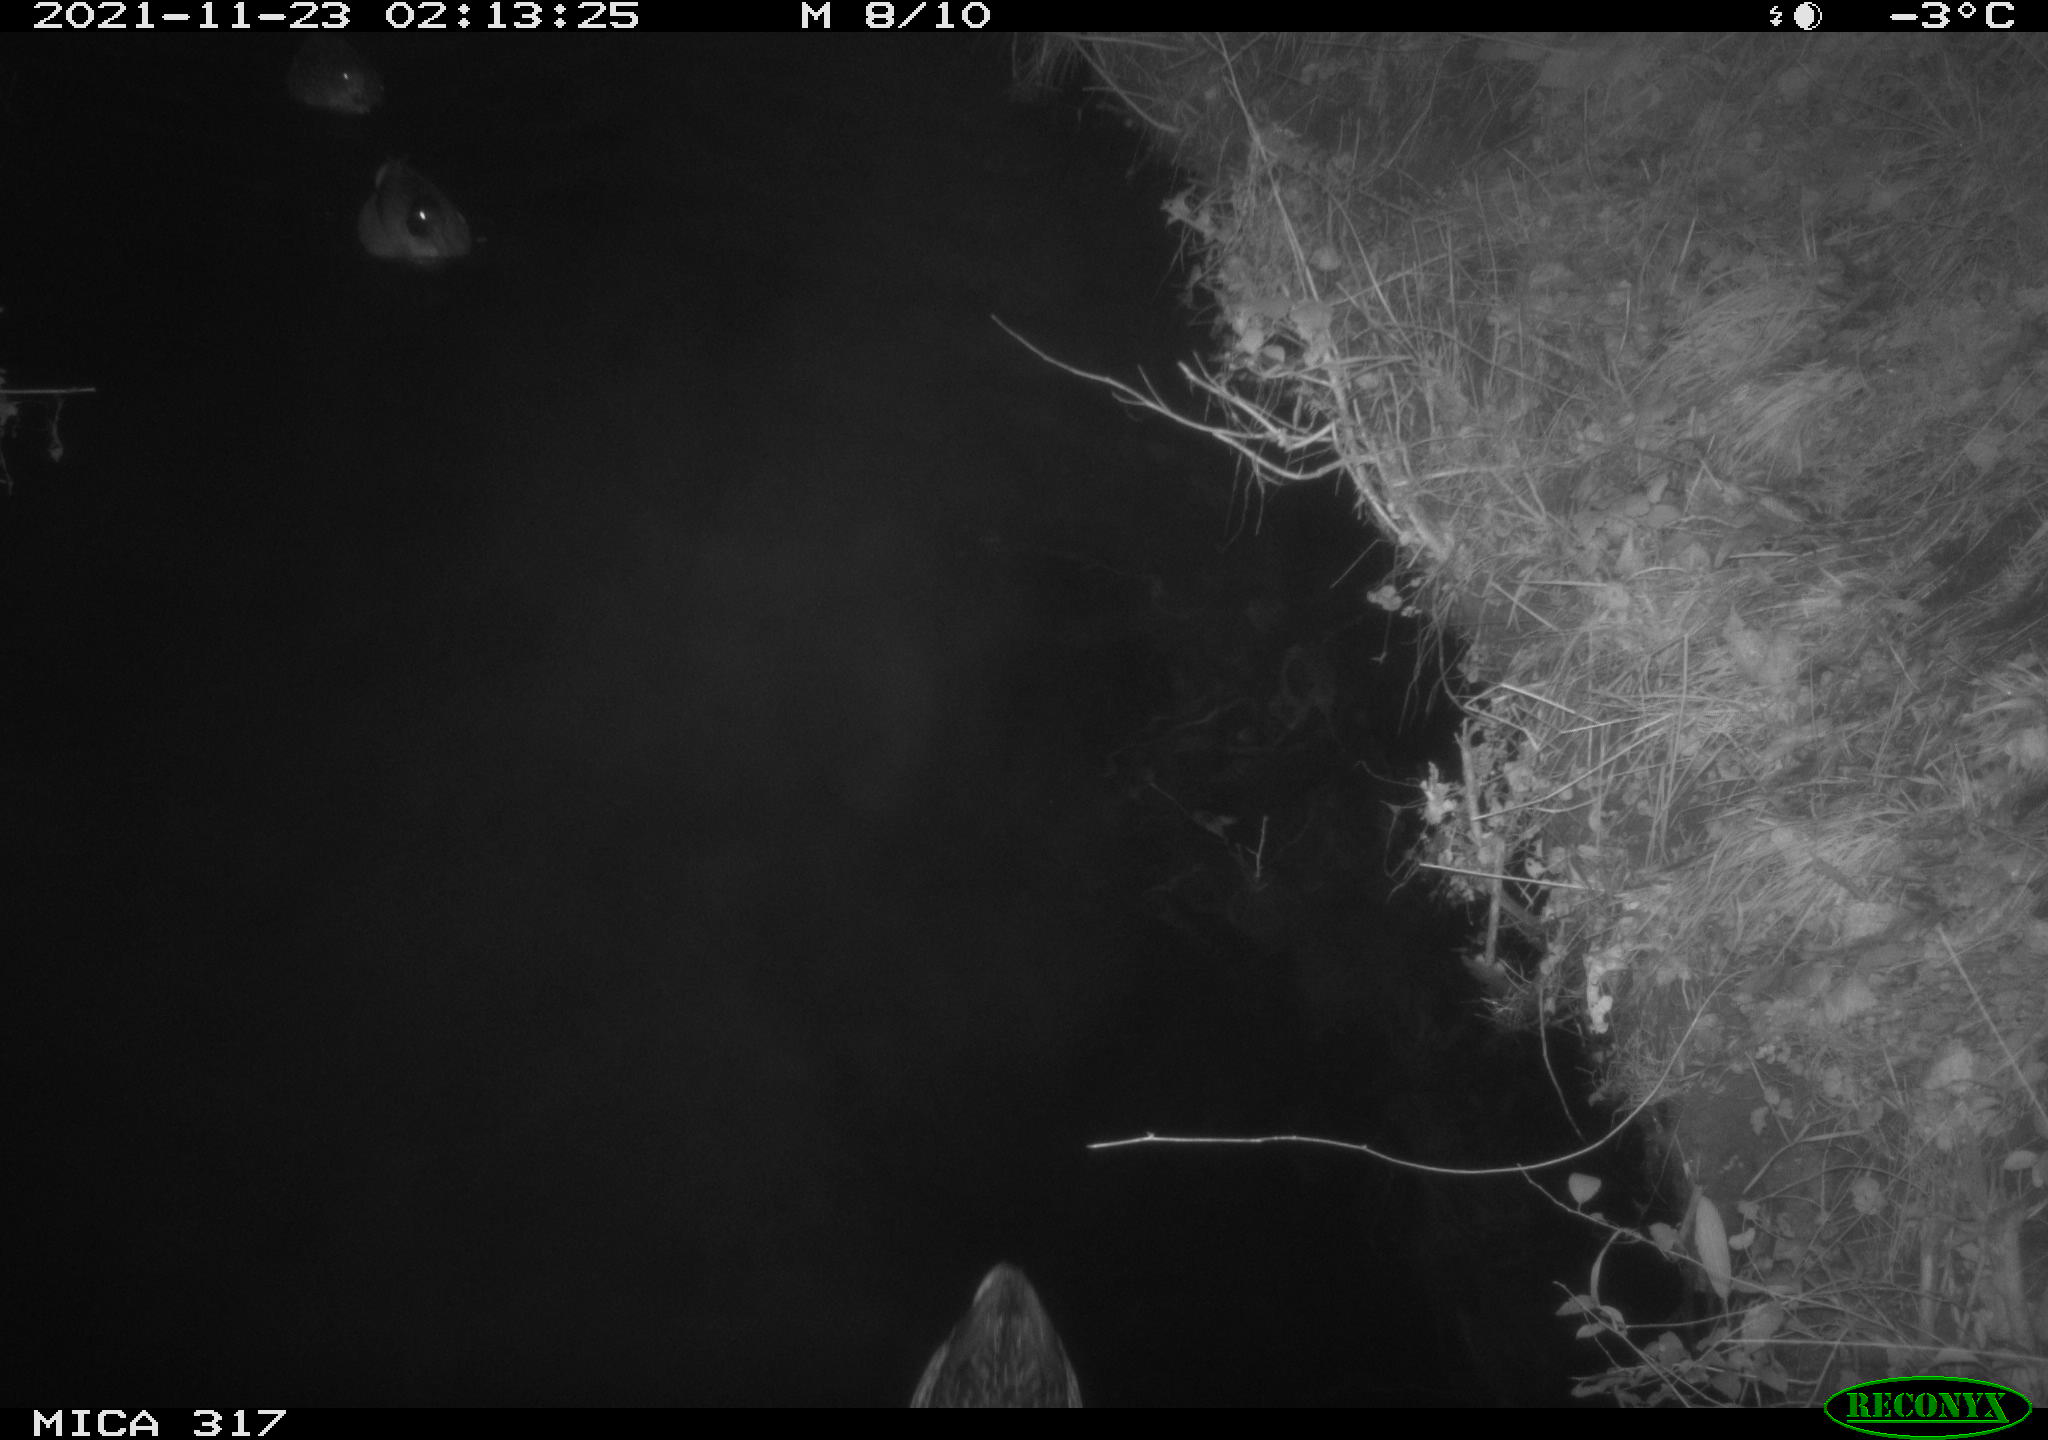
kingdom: Animalia
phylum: Chordata
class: Aves
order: Anseriformes
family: Anatidae
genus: Anas
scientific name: Anas platyrhynchos
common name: Mallard
